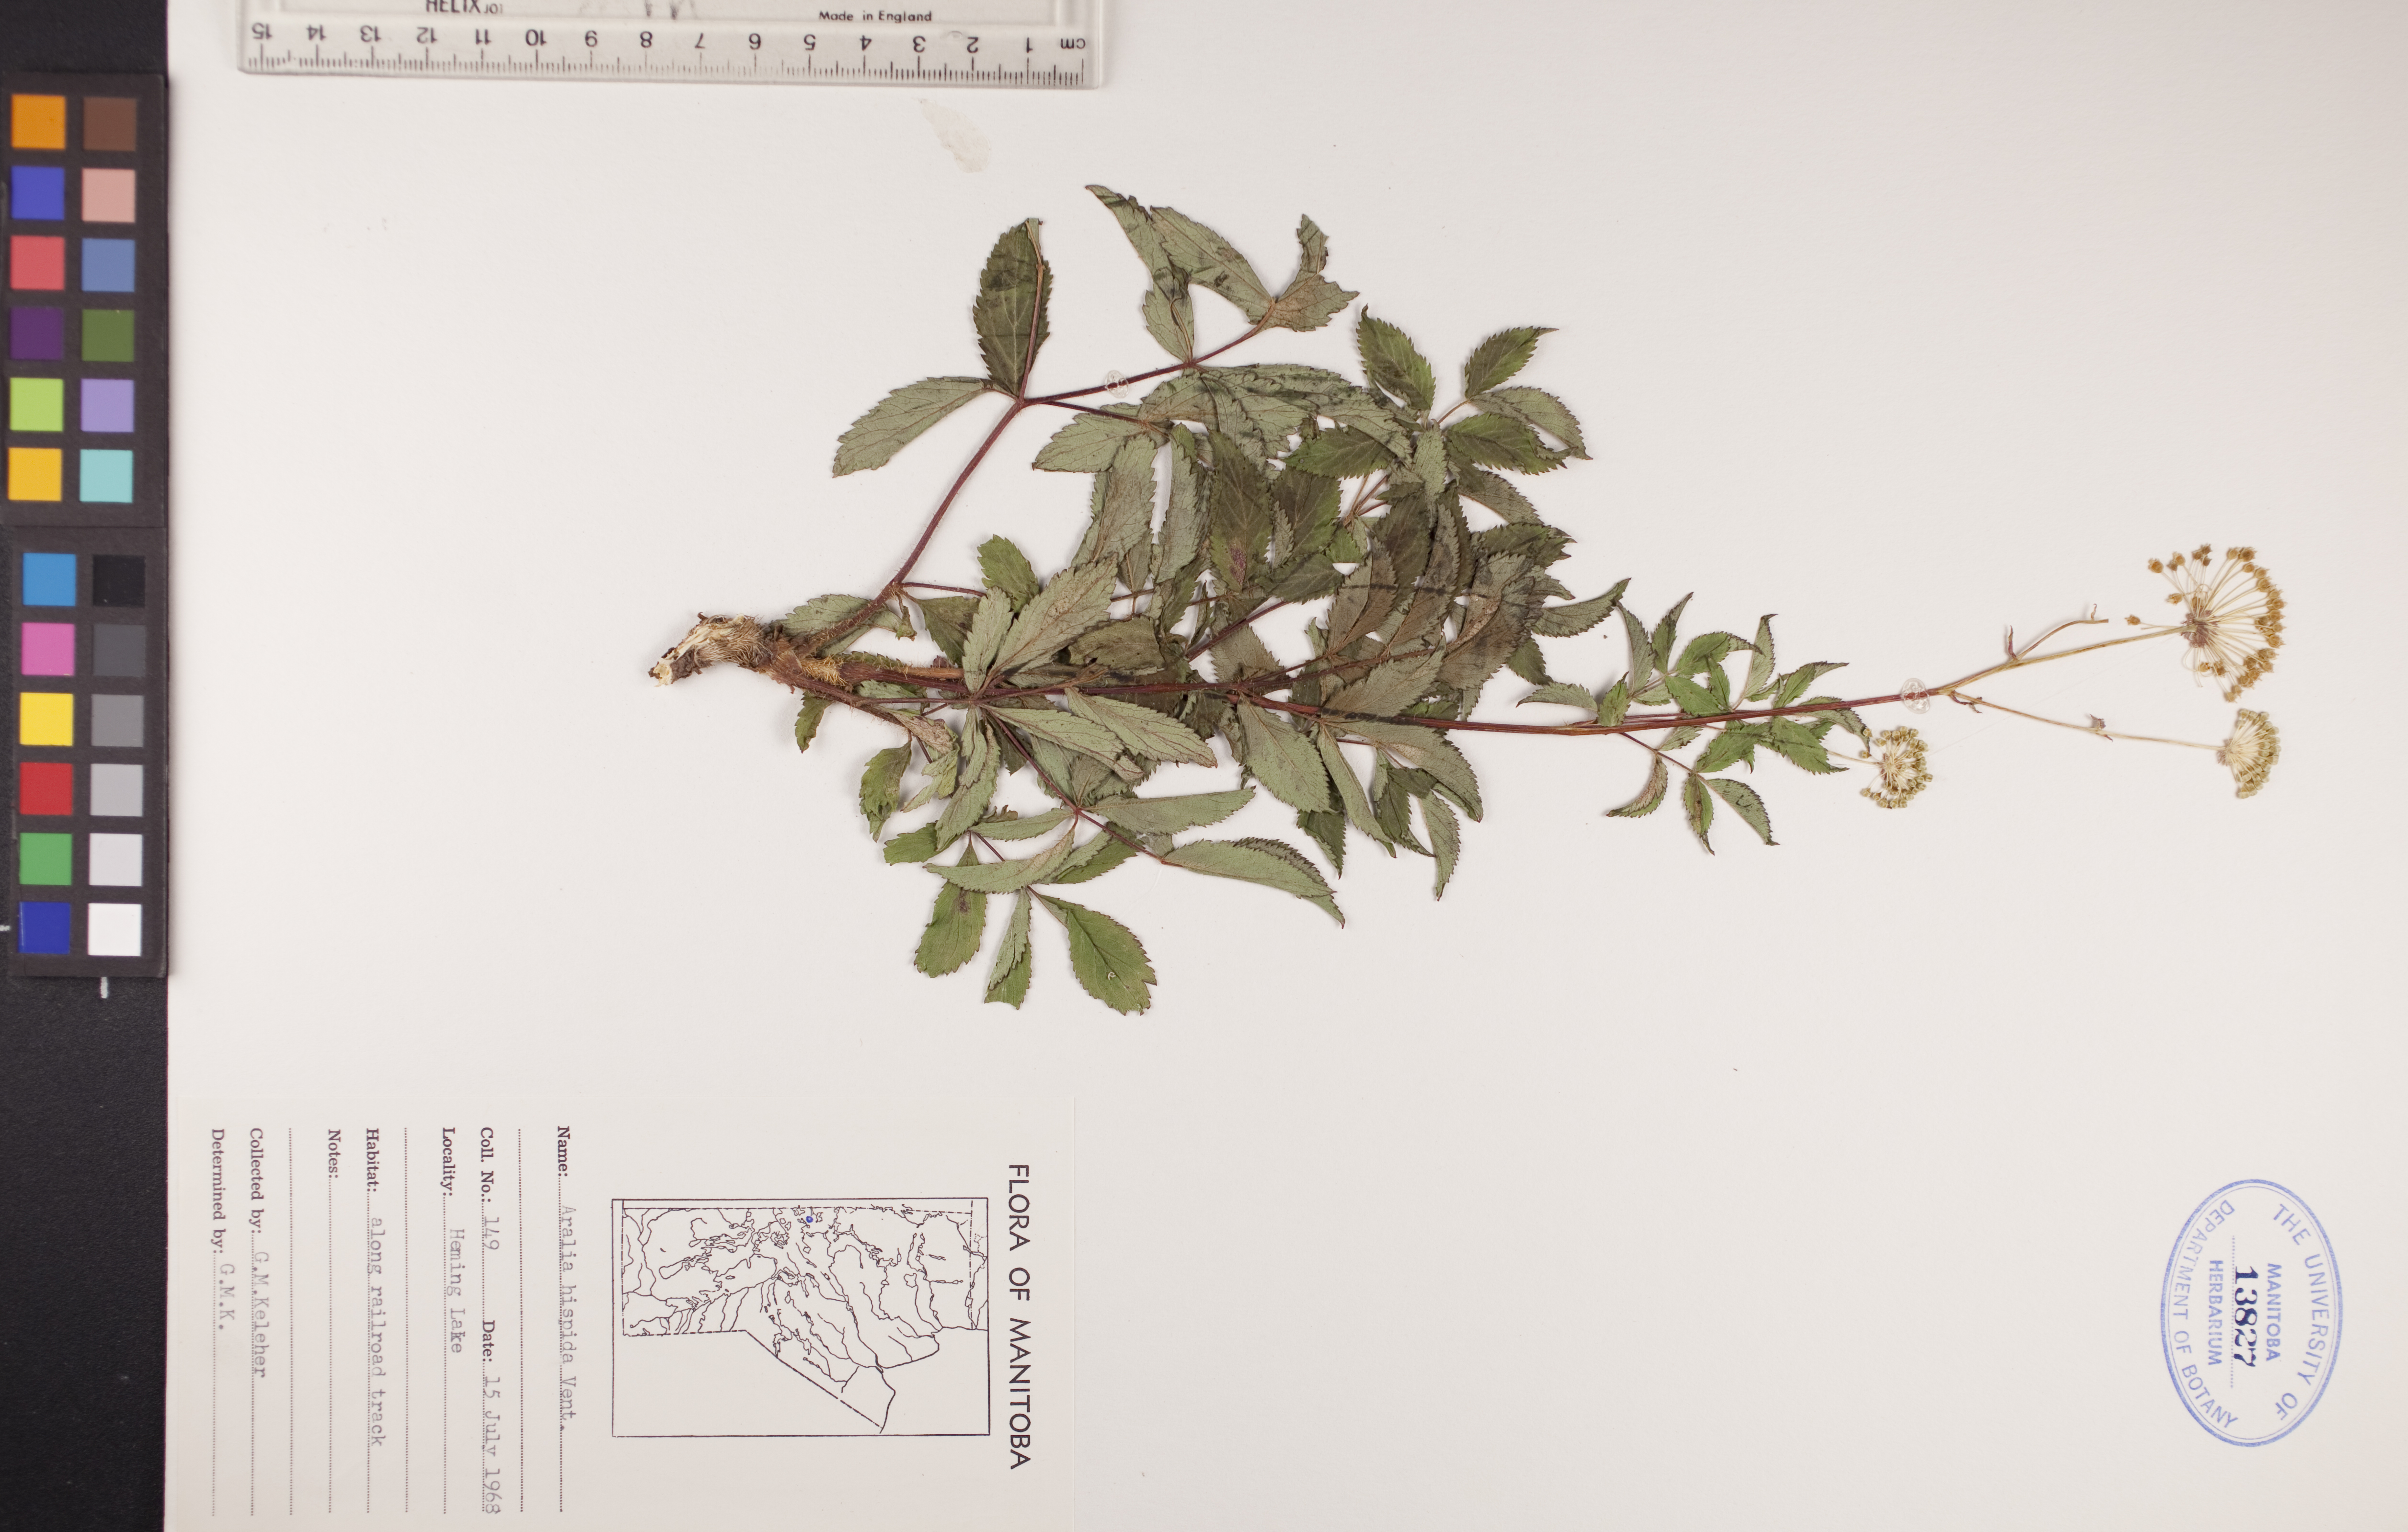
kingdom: Plantae
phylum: Tracheophyta
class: Magnoliopsida
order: Apiales
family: Araliaceae
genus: Aralia
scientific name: Aralia hispida
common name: Bristly sarsaparilla
